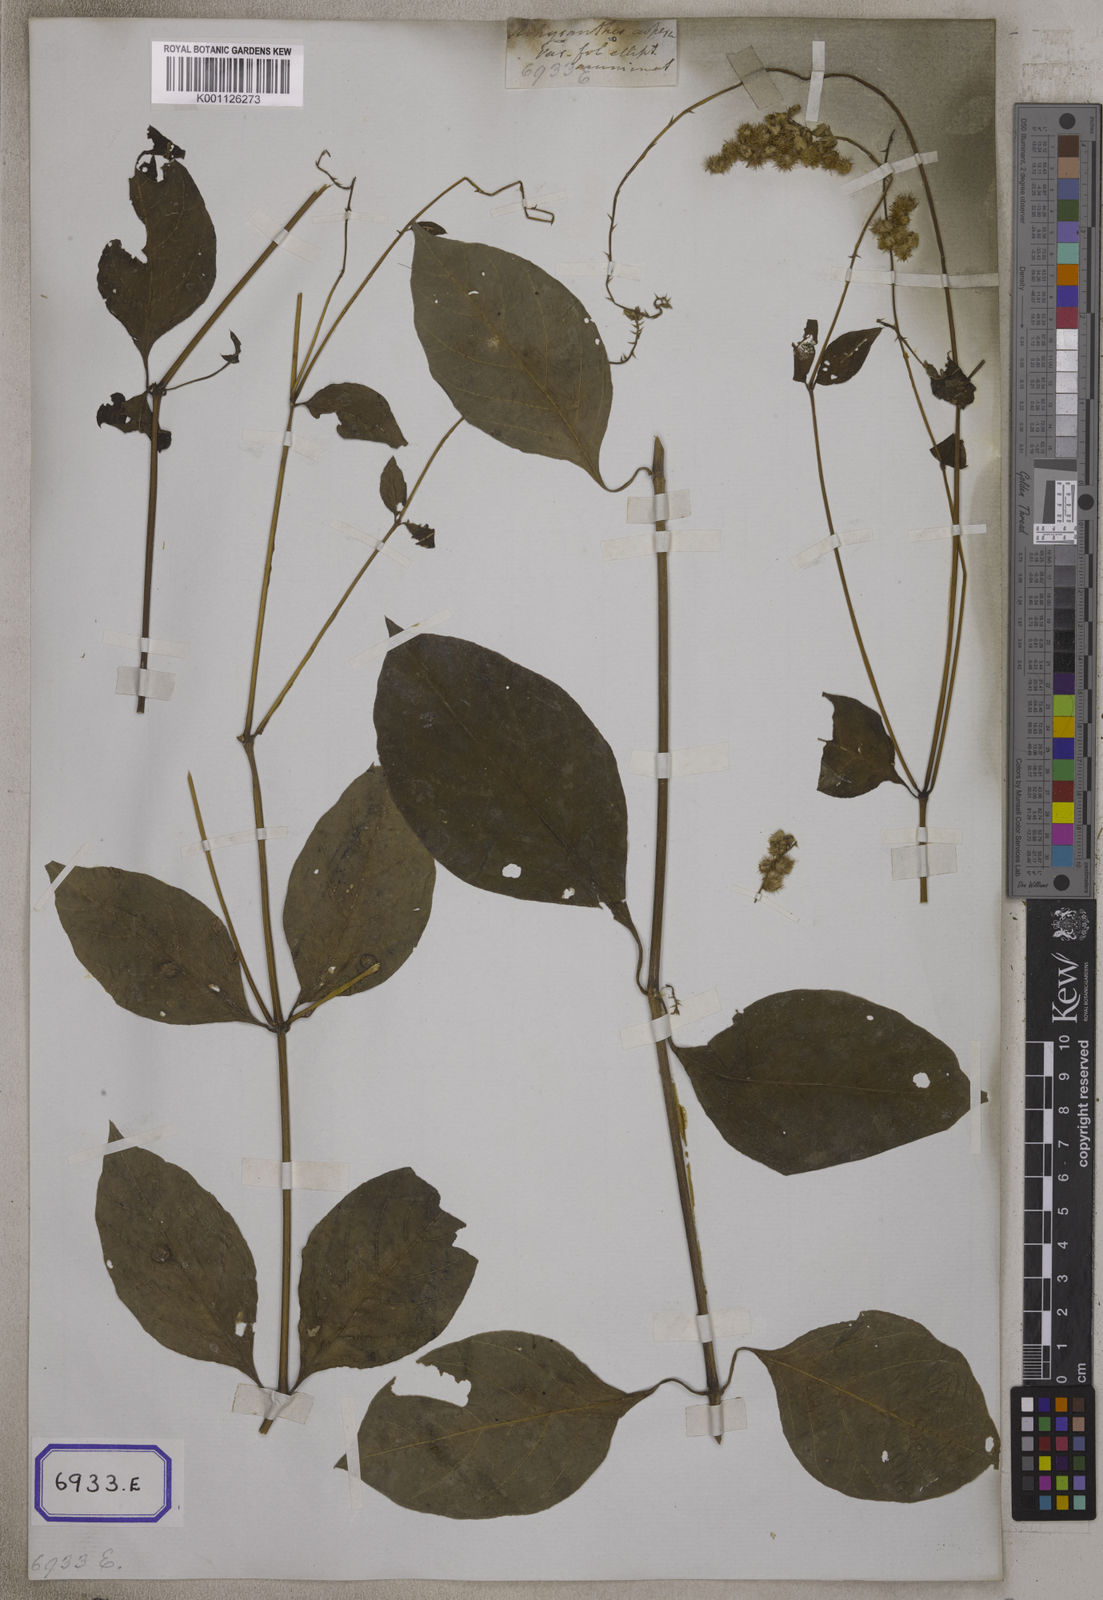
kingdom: Plantae
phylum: Tracheophyta
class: Magnoliopsida
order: Caryophyllales
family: Amaranthaceae
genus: Pupalia
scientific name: Pupalia lappacea
